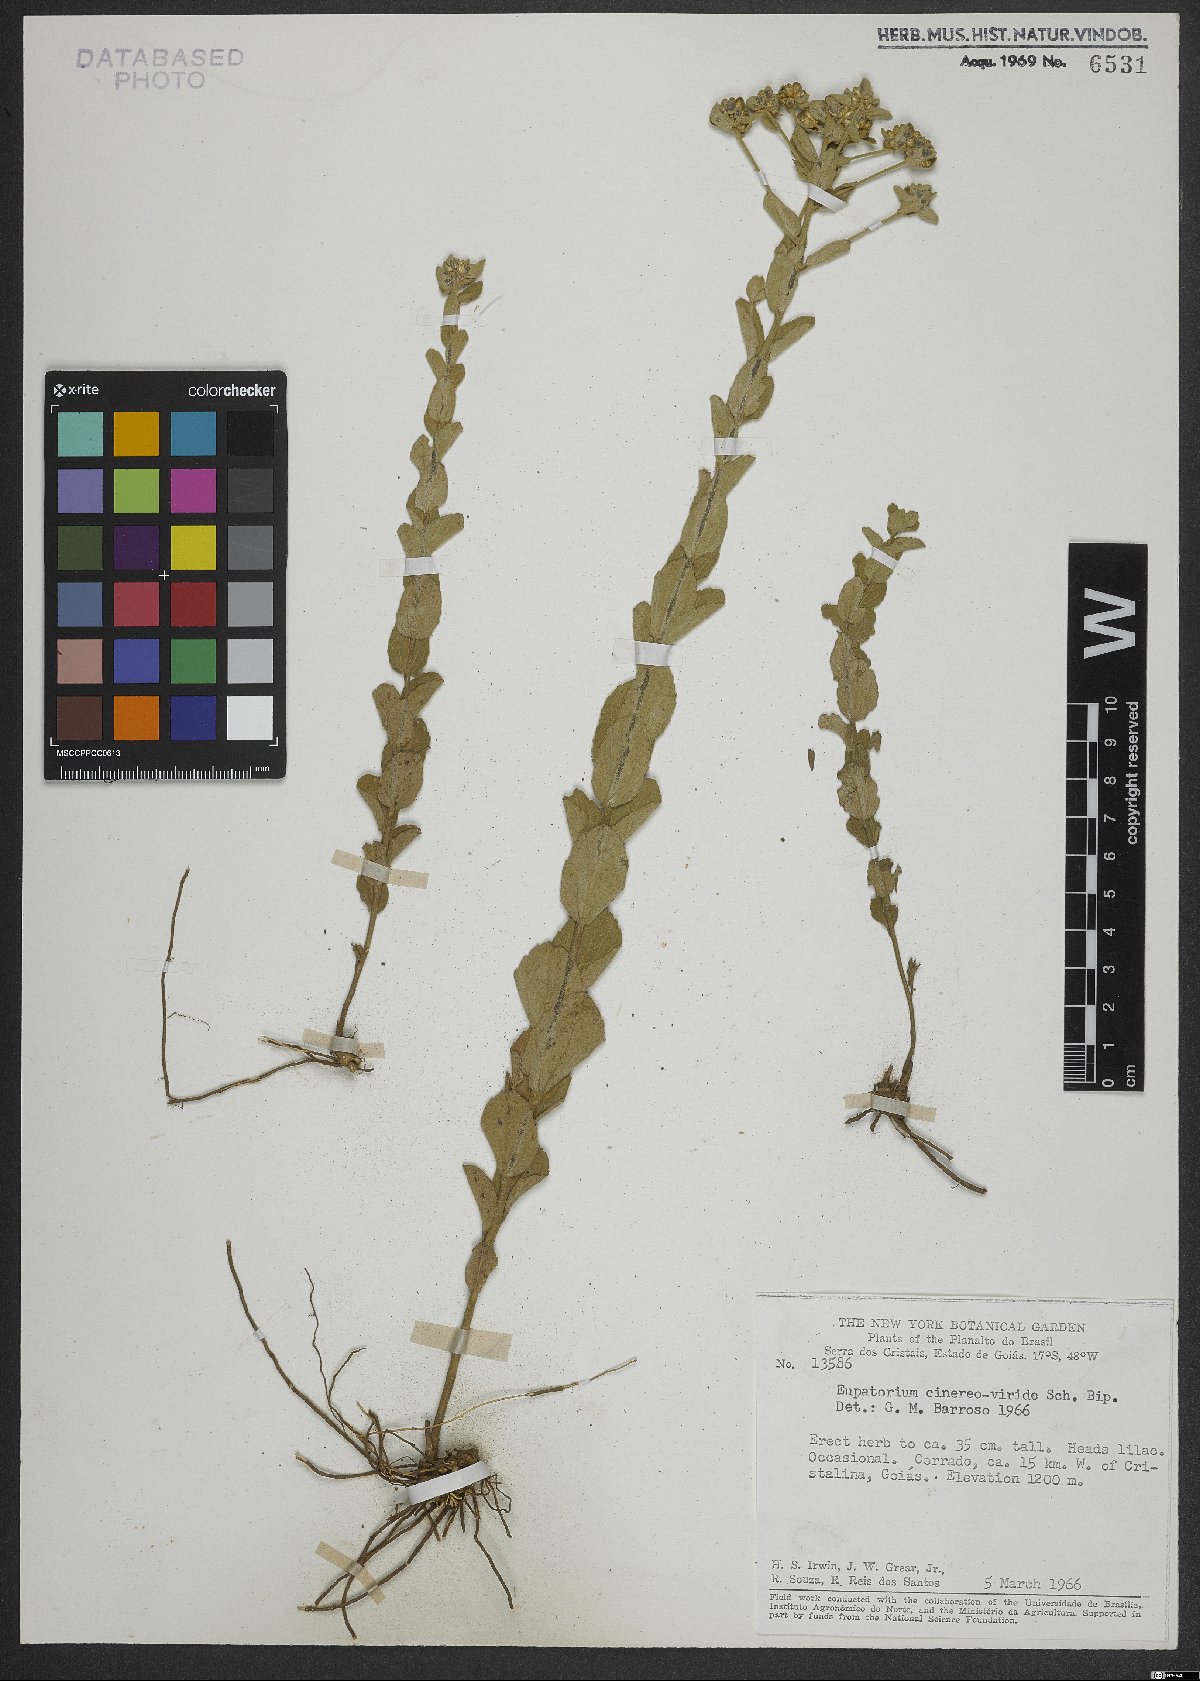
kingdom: Plantae
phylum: Tracheophyta
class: Magnoliopsida
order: Asterales
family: Asteraceae
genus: Chromolaena
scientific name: Chromolaena cinereoviridis
